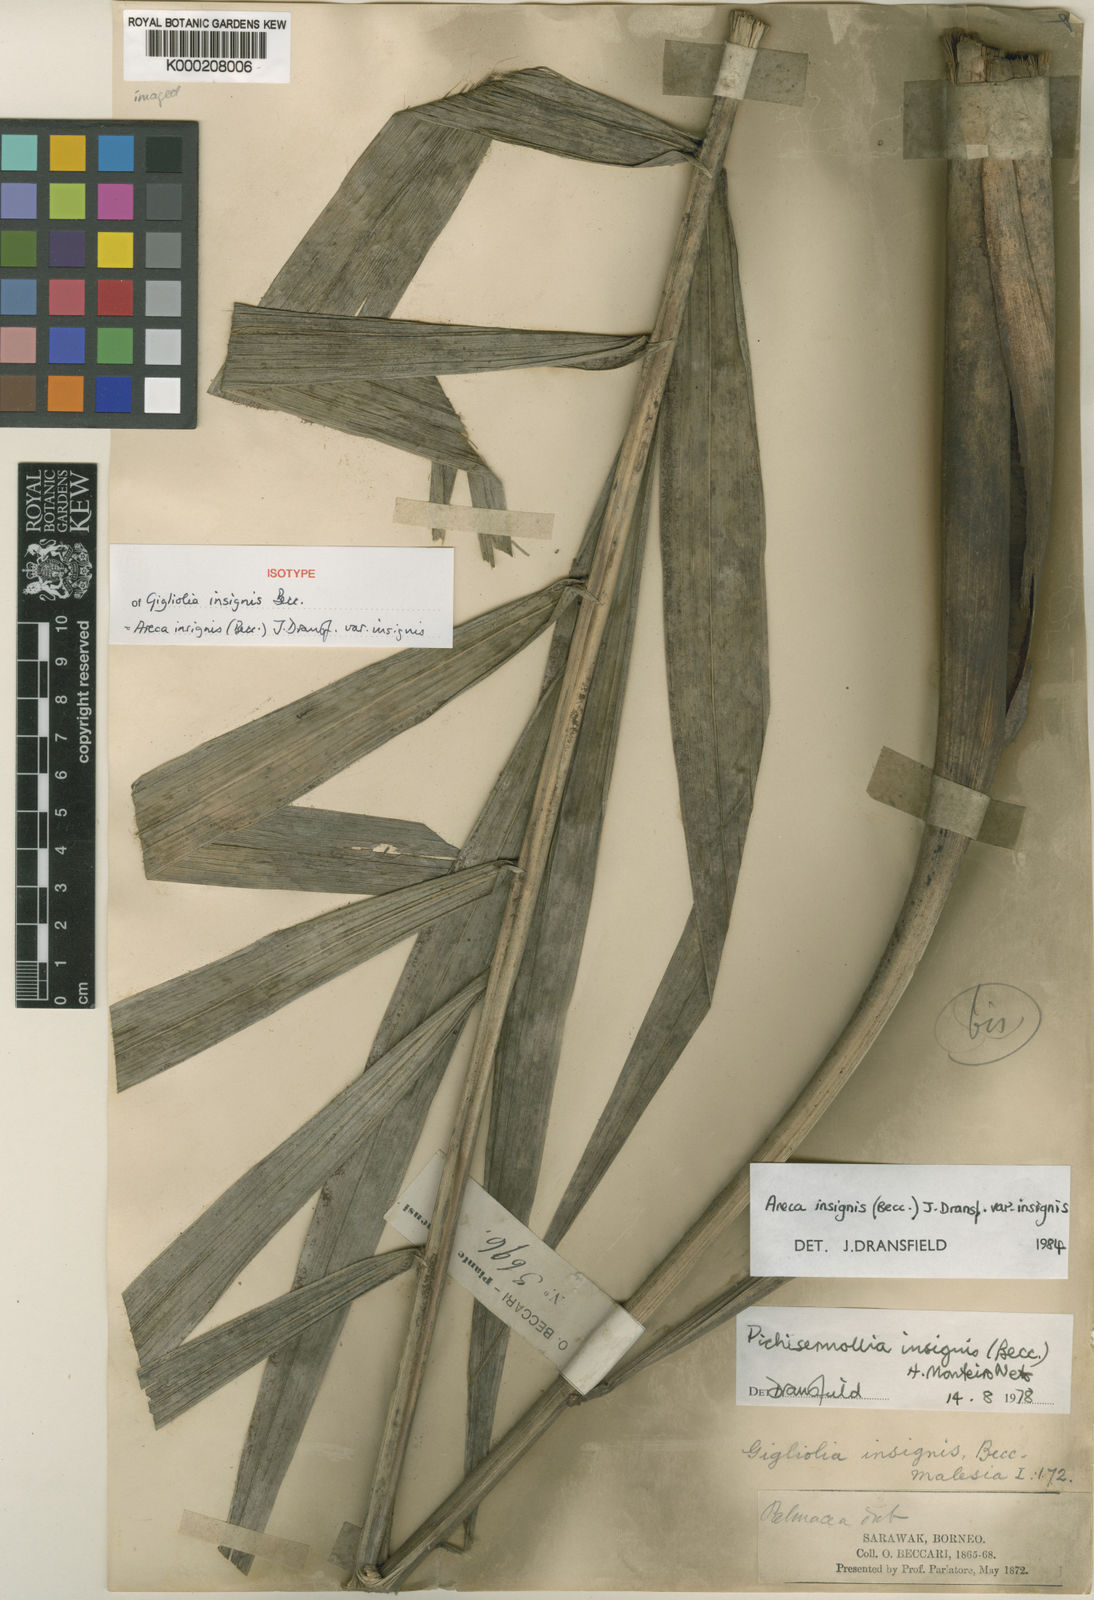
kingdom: Plantae
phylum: Tracheophyta
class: Liliopsida
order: Arecales
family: Arecaceae
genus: Areca
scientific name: Areca insignis
